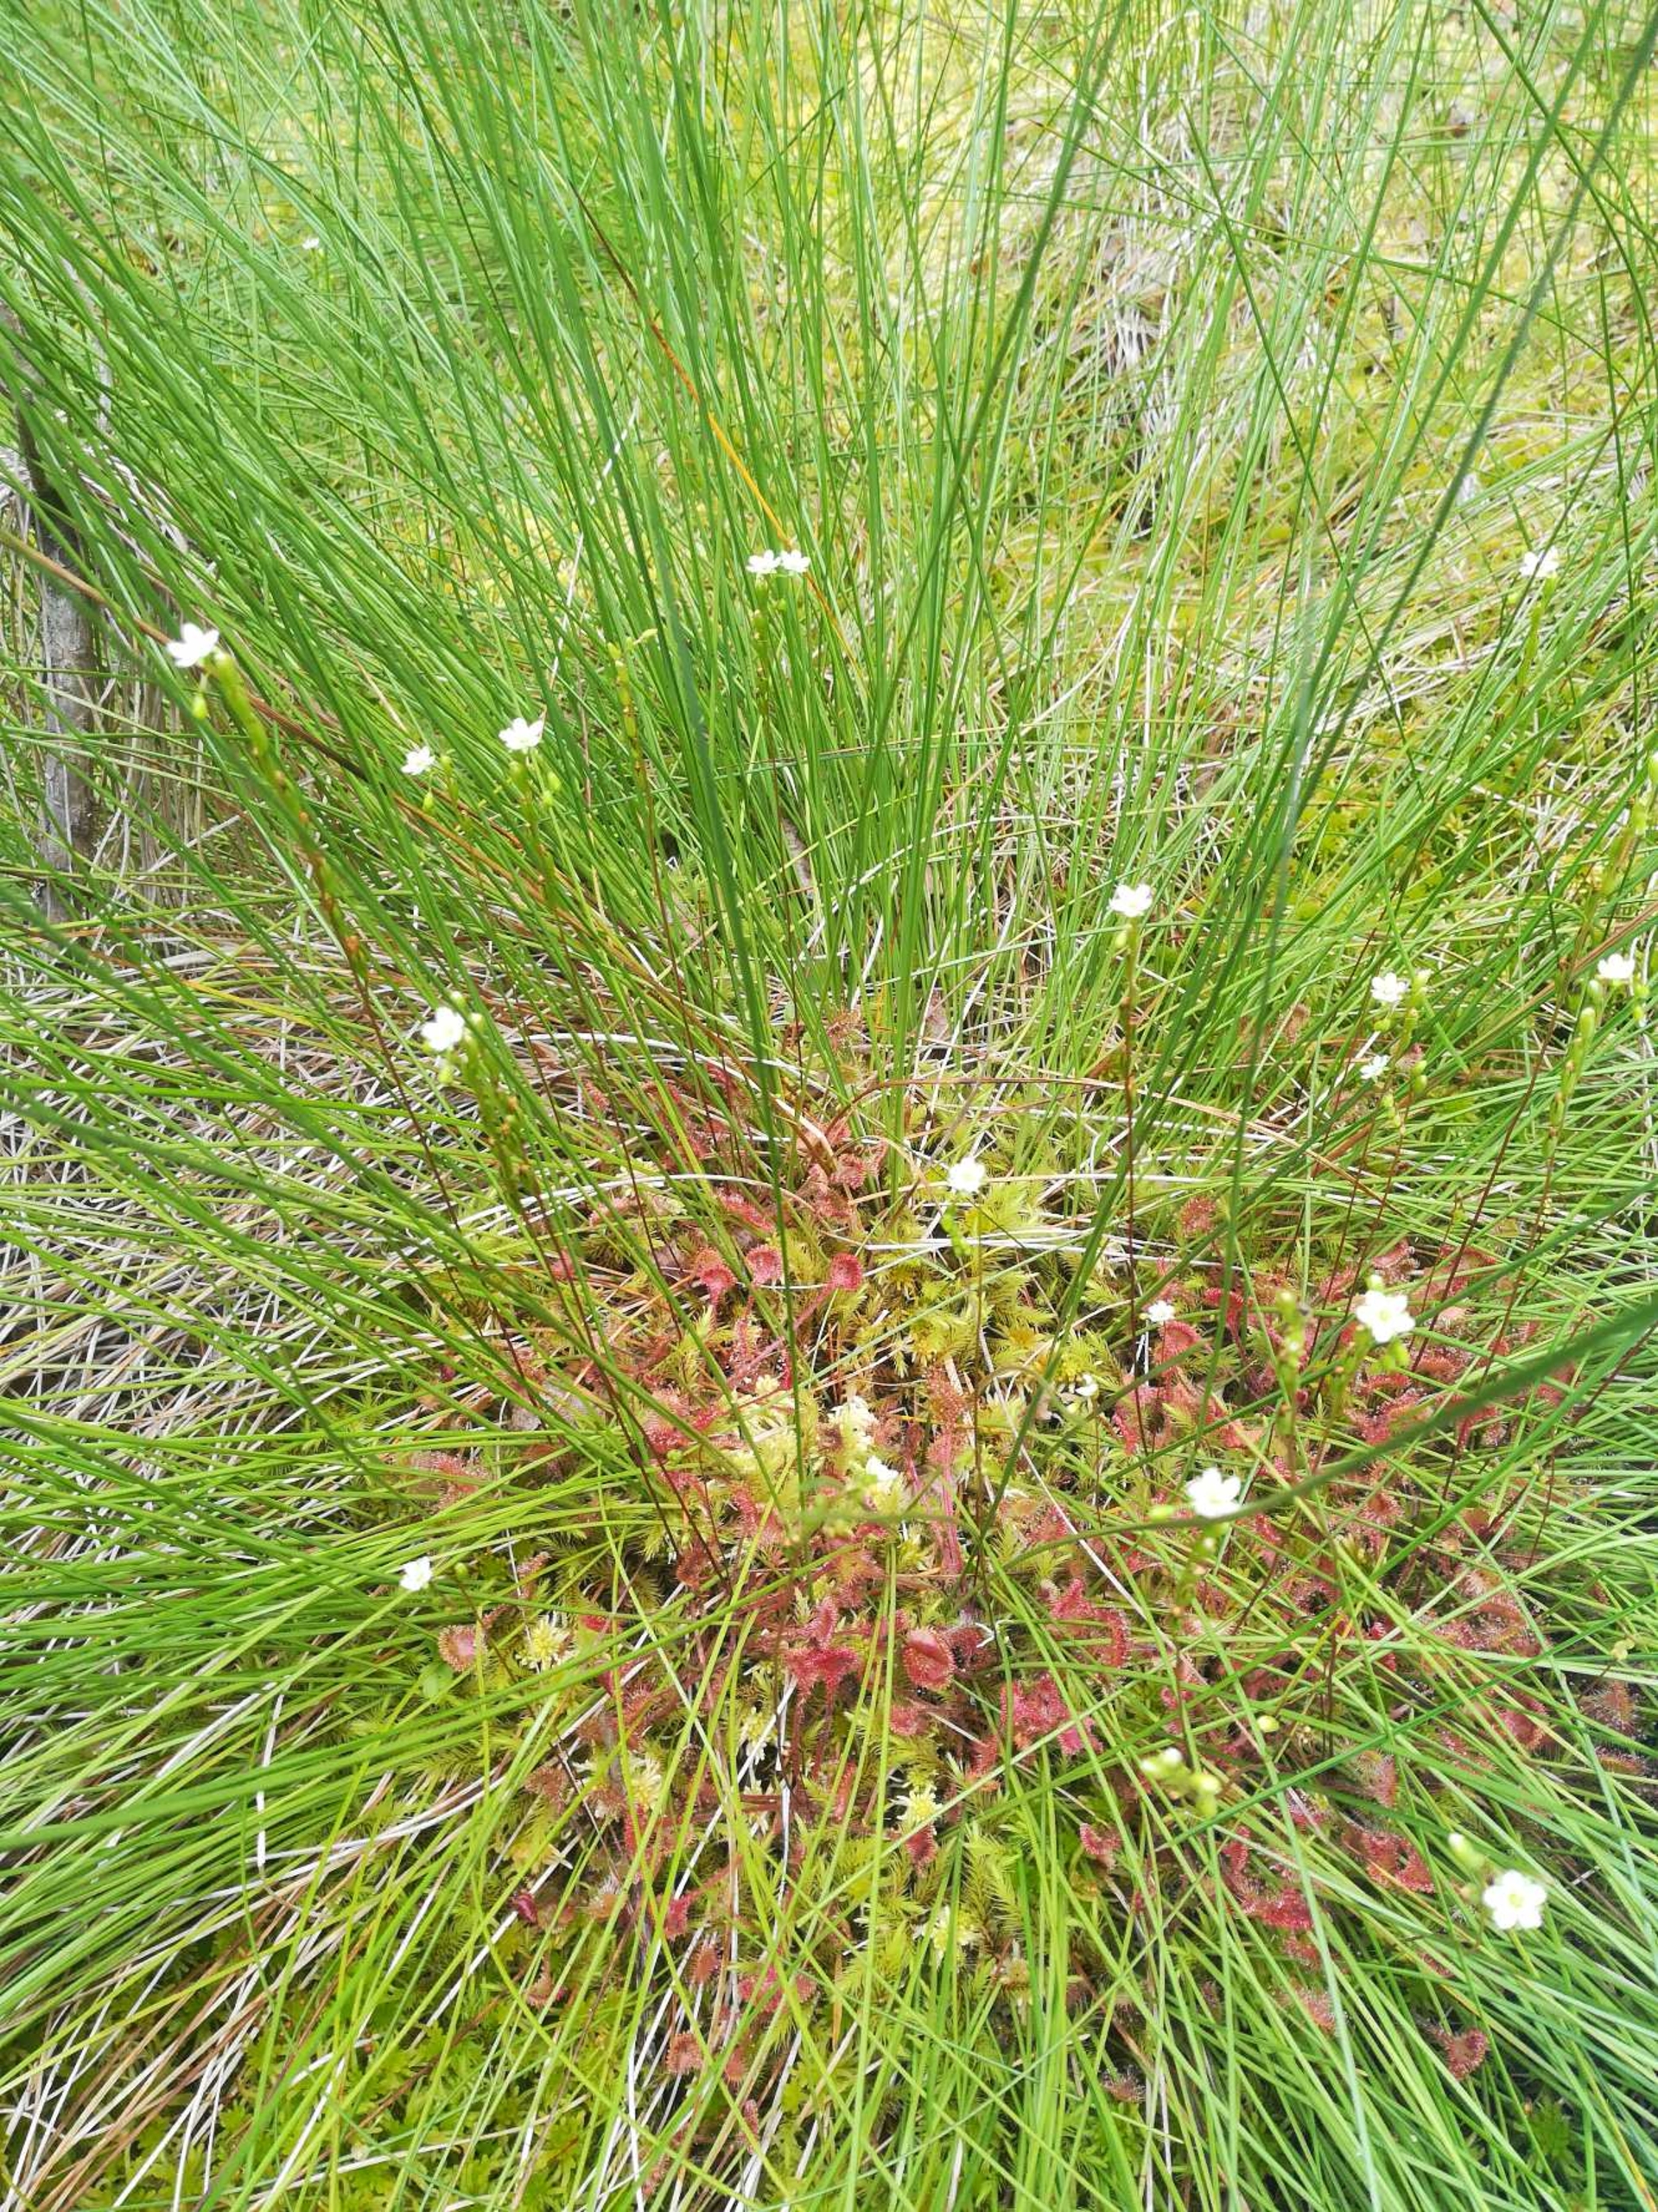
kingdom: Plantae
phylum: Tracheophyta
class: Magnoliopsida
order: Caryophyllales
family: Droseraceae
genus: Drosera
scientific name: Drosera rotundifolia
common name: Rundbladet soldug
